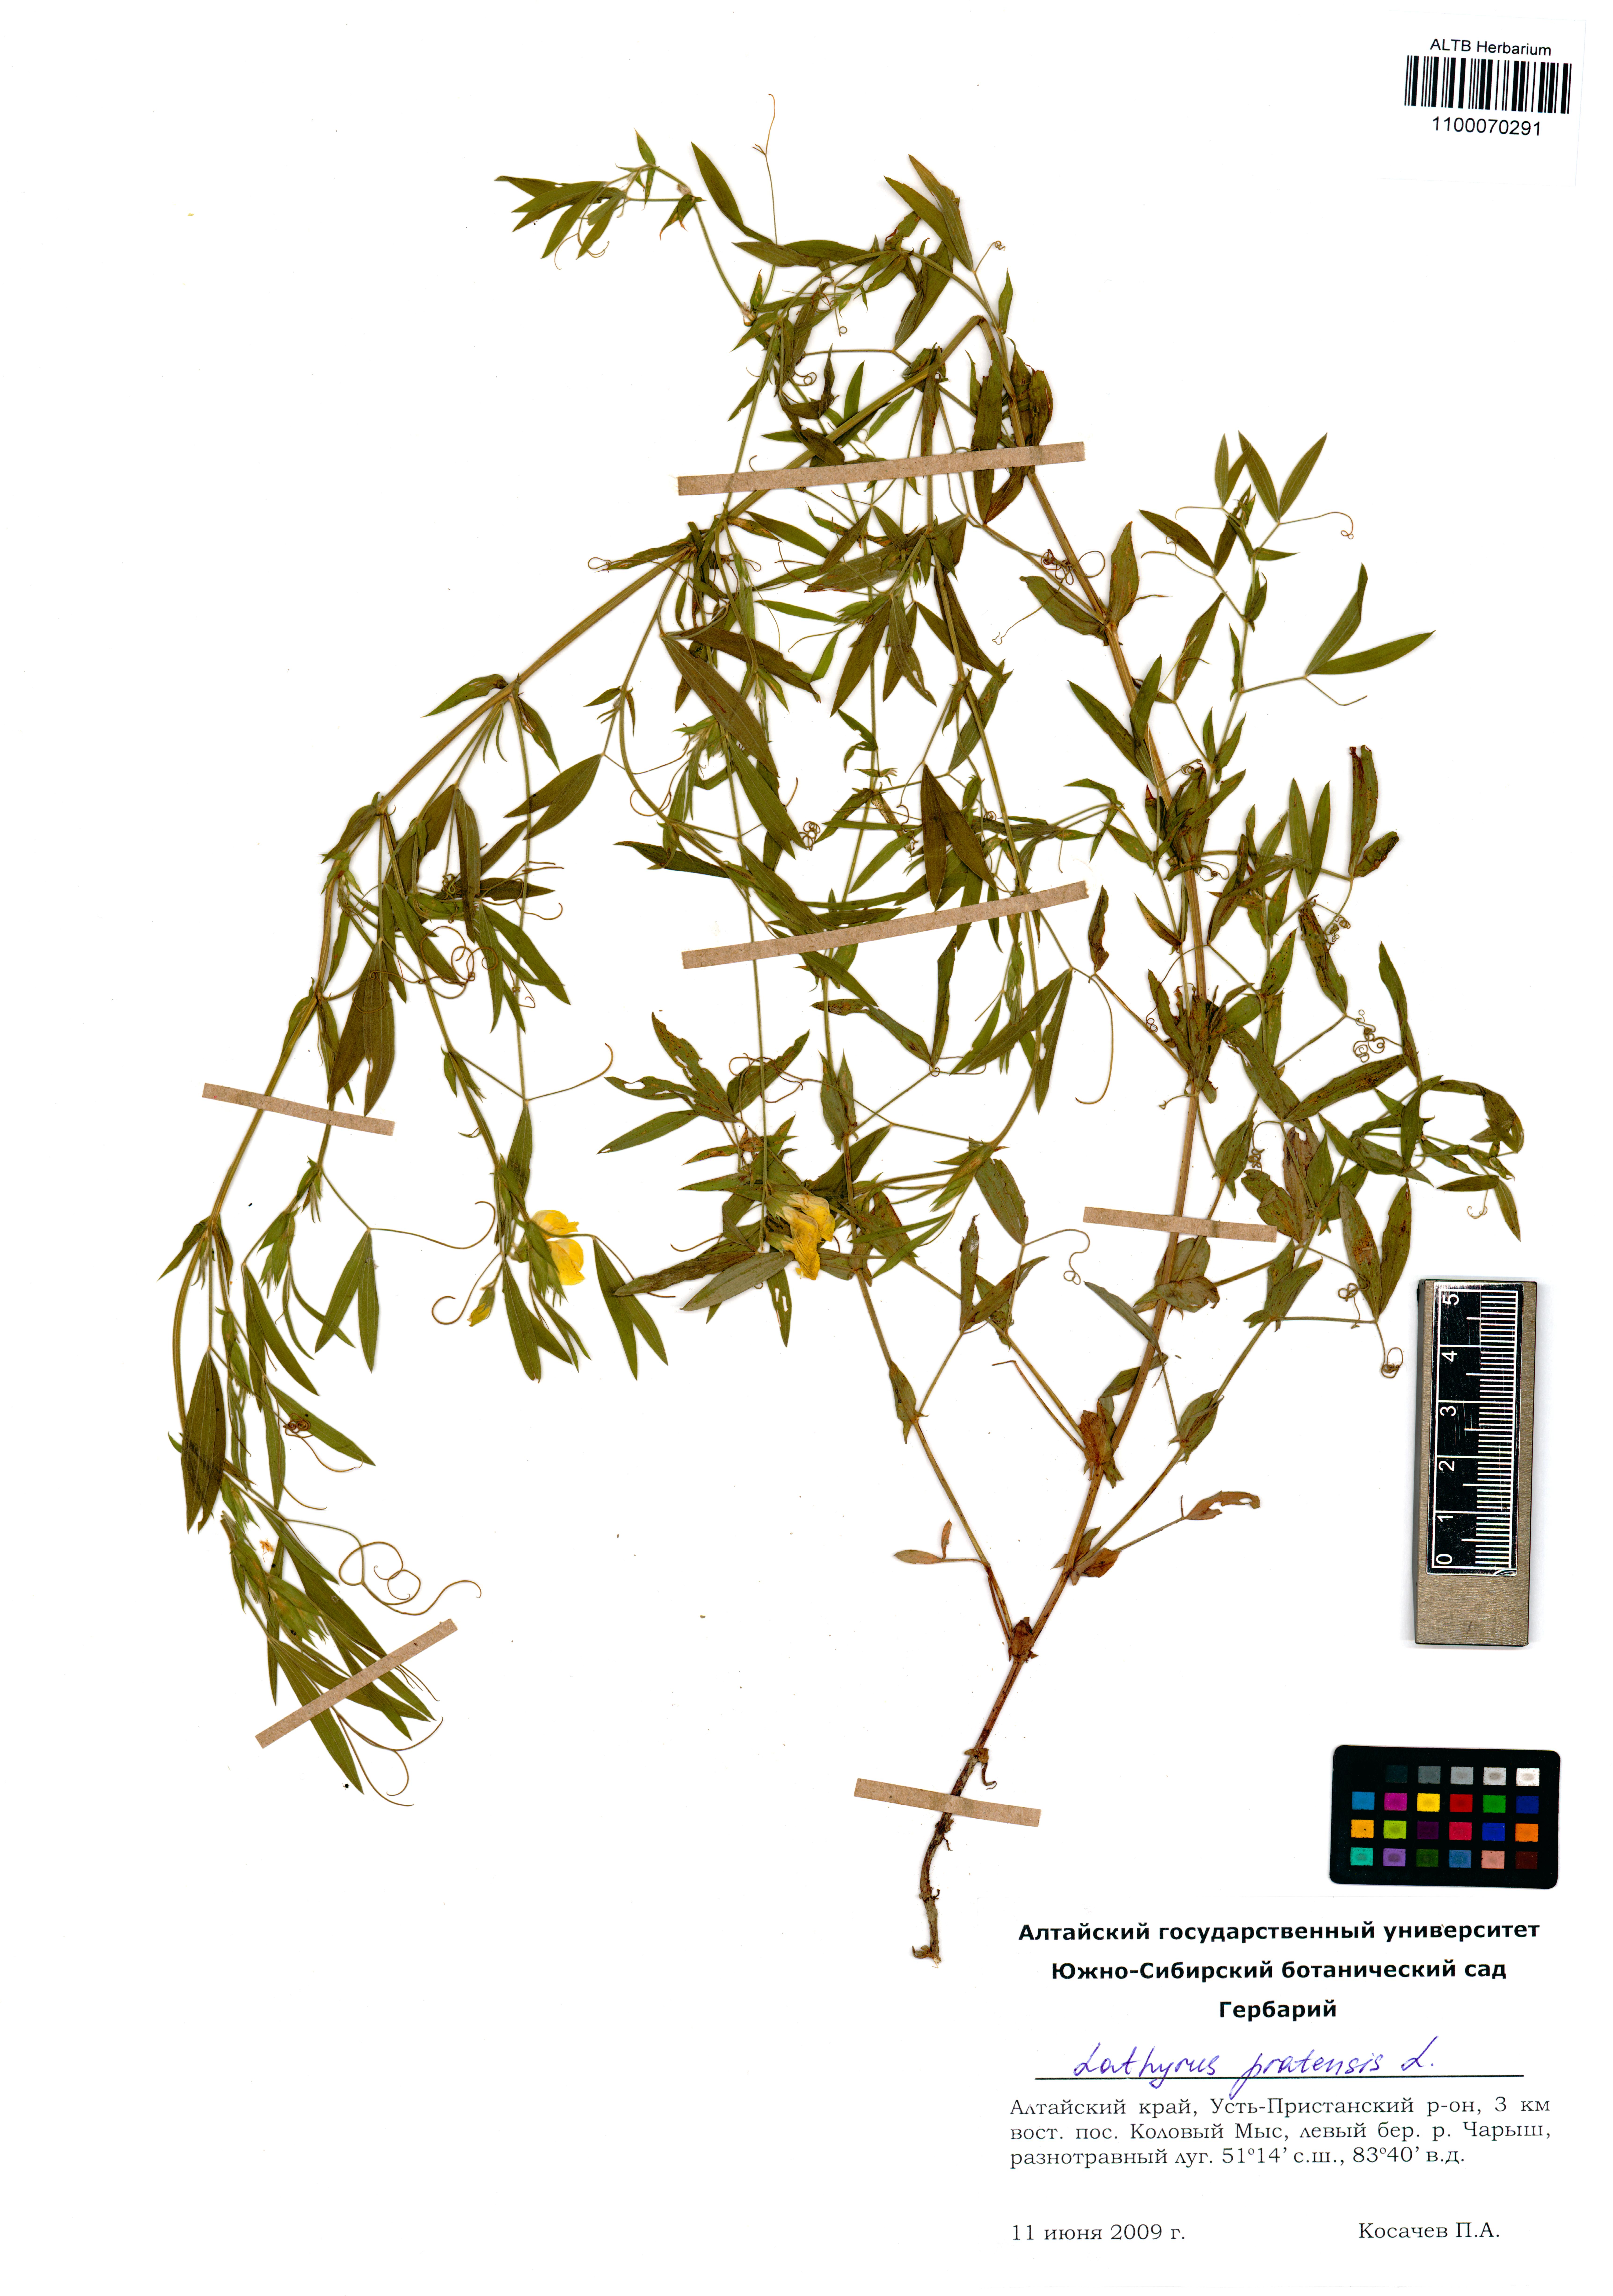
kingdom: Plantae
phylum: Tracheophyta
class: Magnoliopsida
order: Fabales
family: Fabaceae
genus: Lathyrus
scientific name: Lathyrus pratensis
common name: Meadow vetchling
